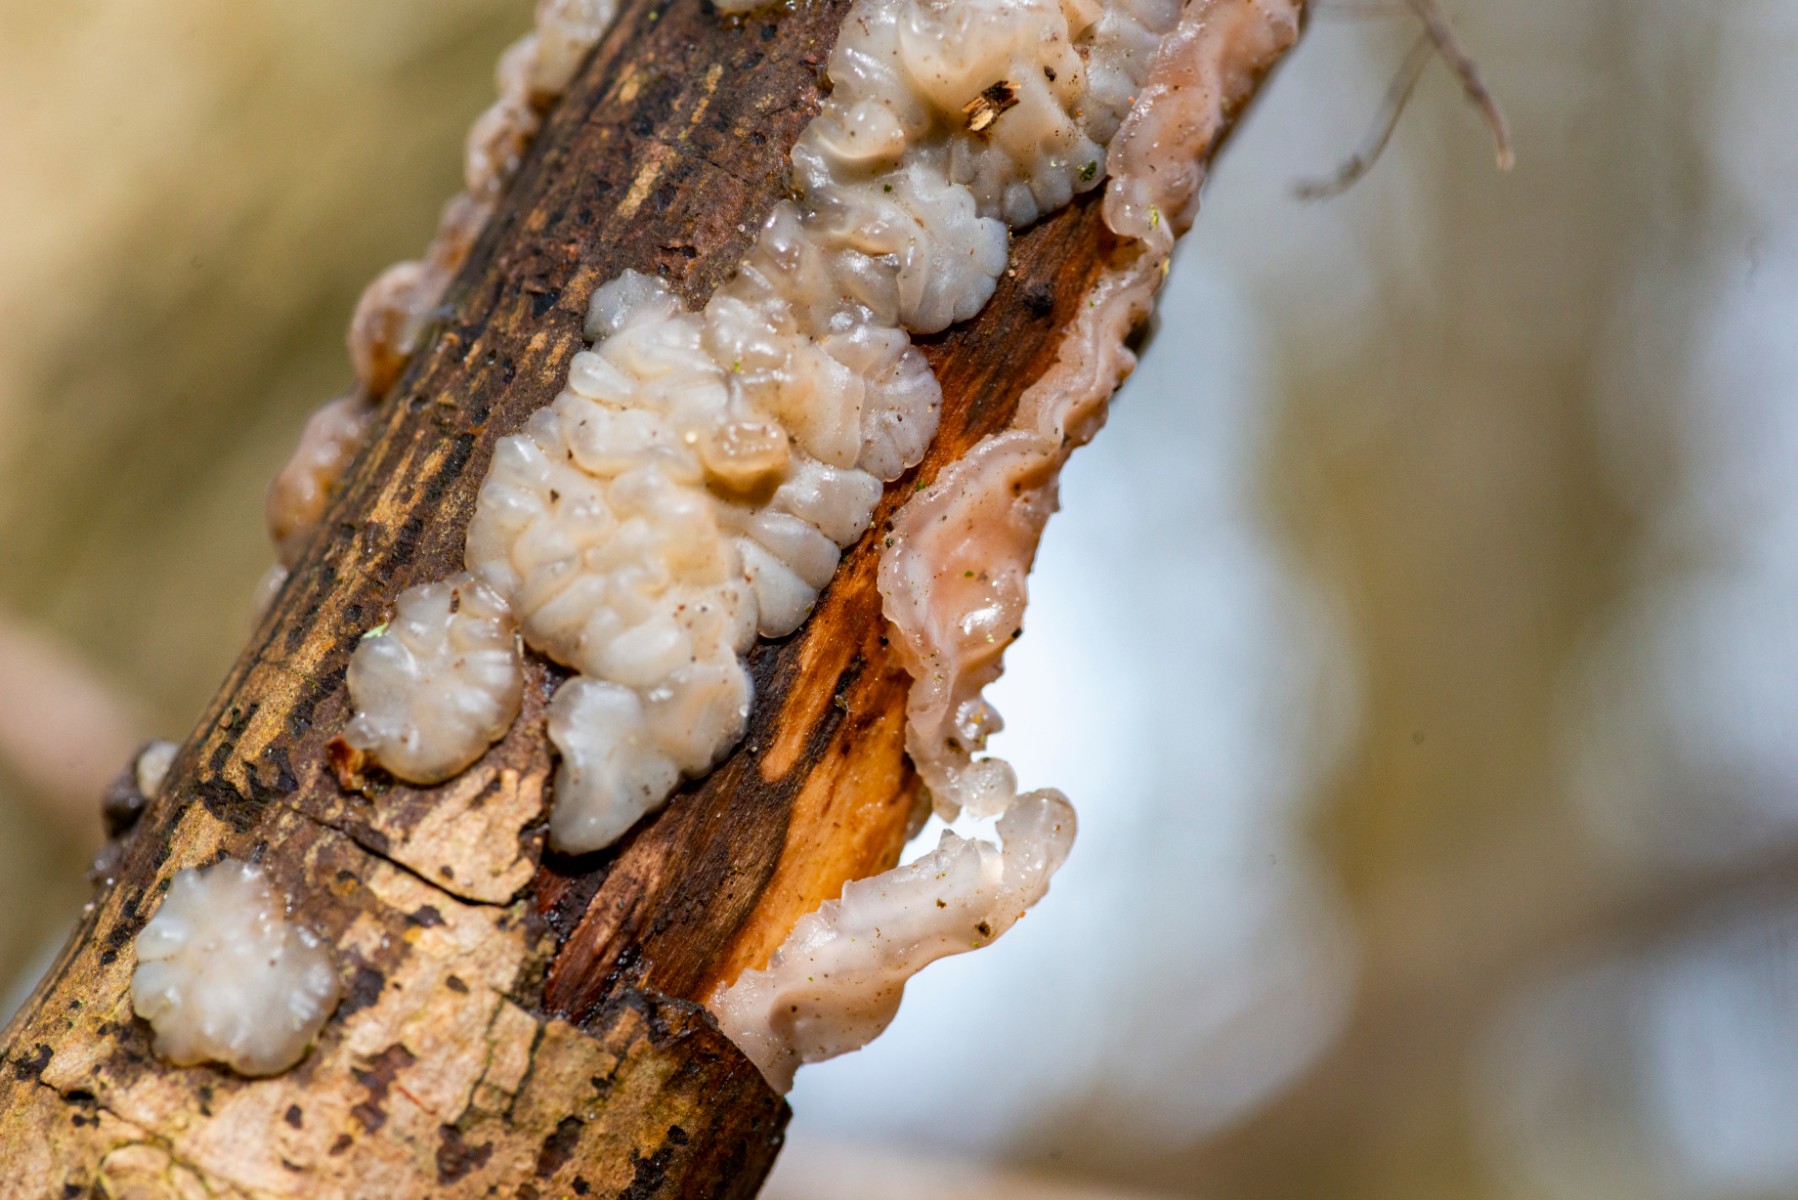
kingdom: Fungi
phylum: Basidiomycota
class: Agaricomycetes
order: Auriculariales
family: Auriculariaceae
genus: Exidia
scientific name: Exidia thuretiana
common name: hvidlig bævretop
